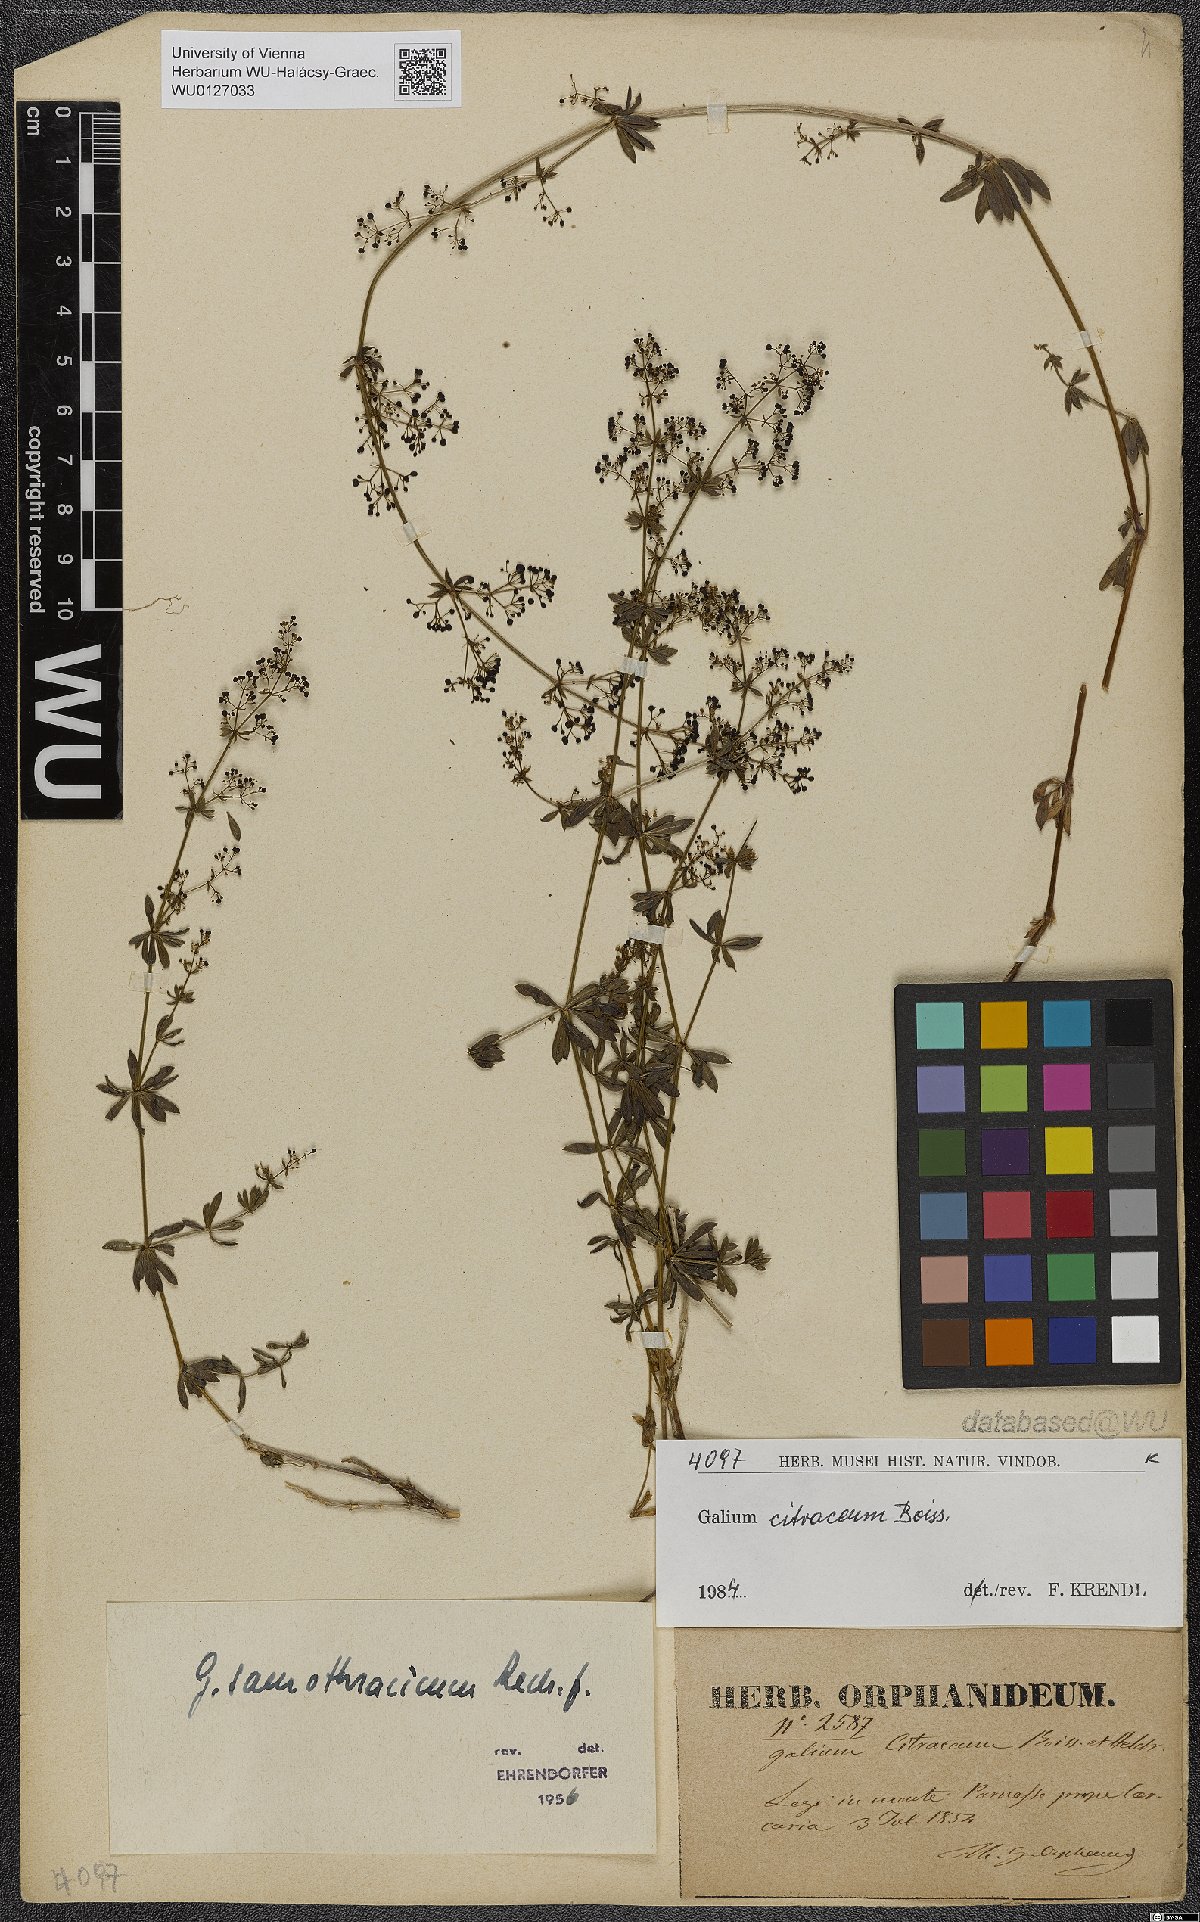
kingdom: Plantae
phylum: Tracheophyta
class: Magnoliopsida
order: Gentianales
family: Rubiaceae
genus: Galium
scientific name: Galium citraceum
